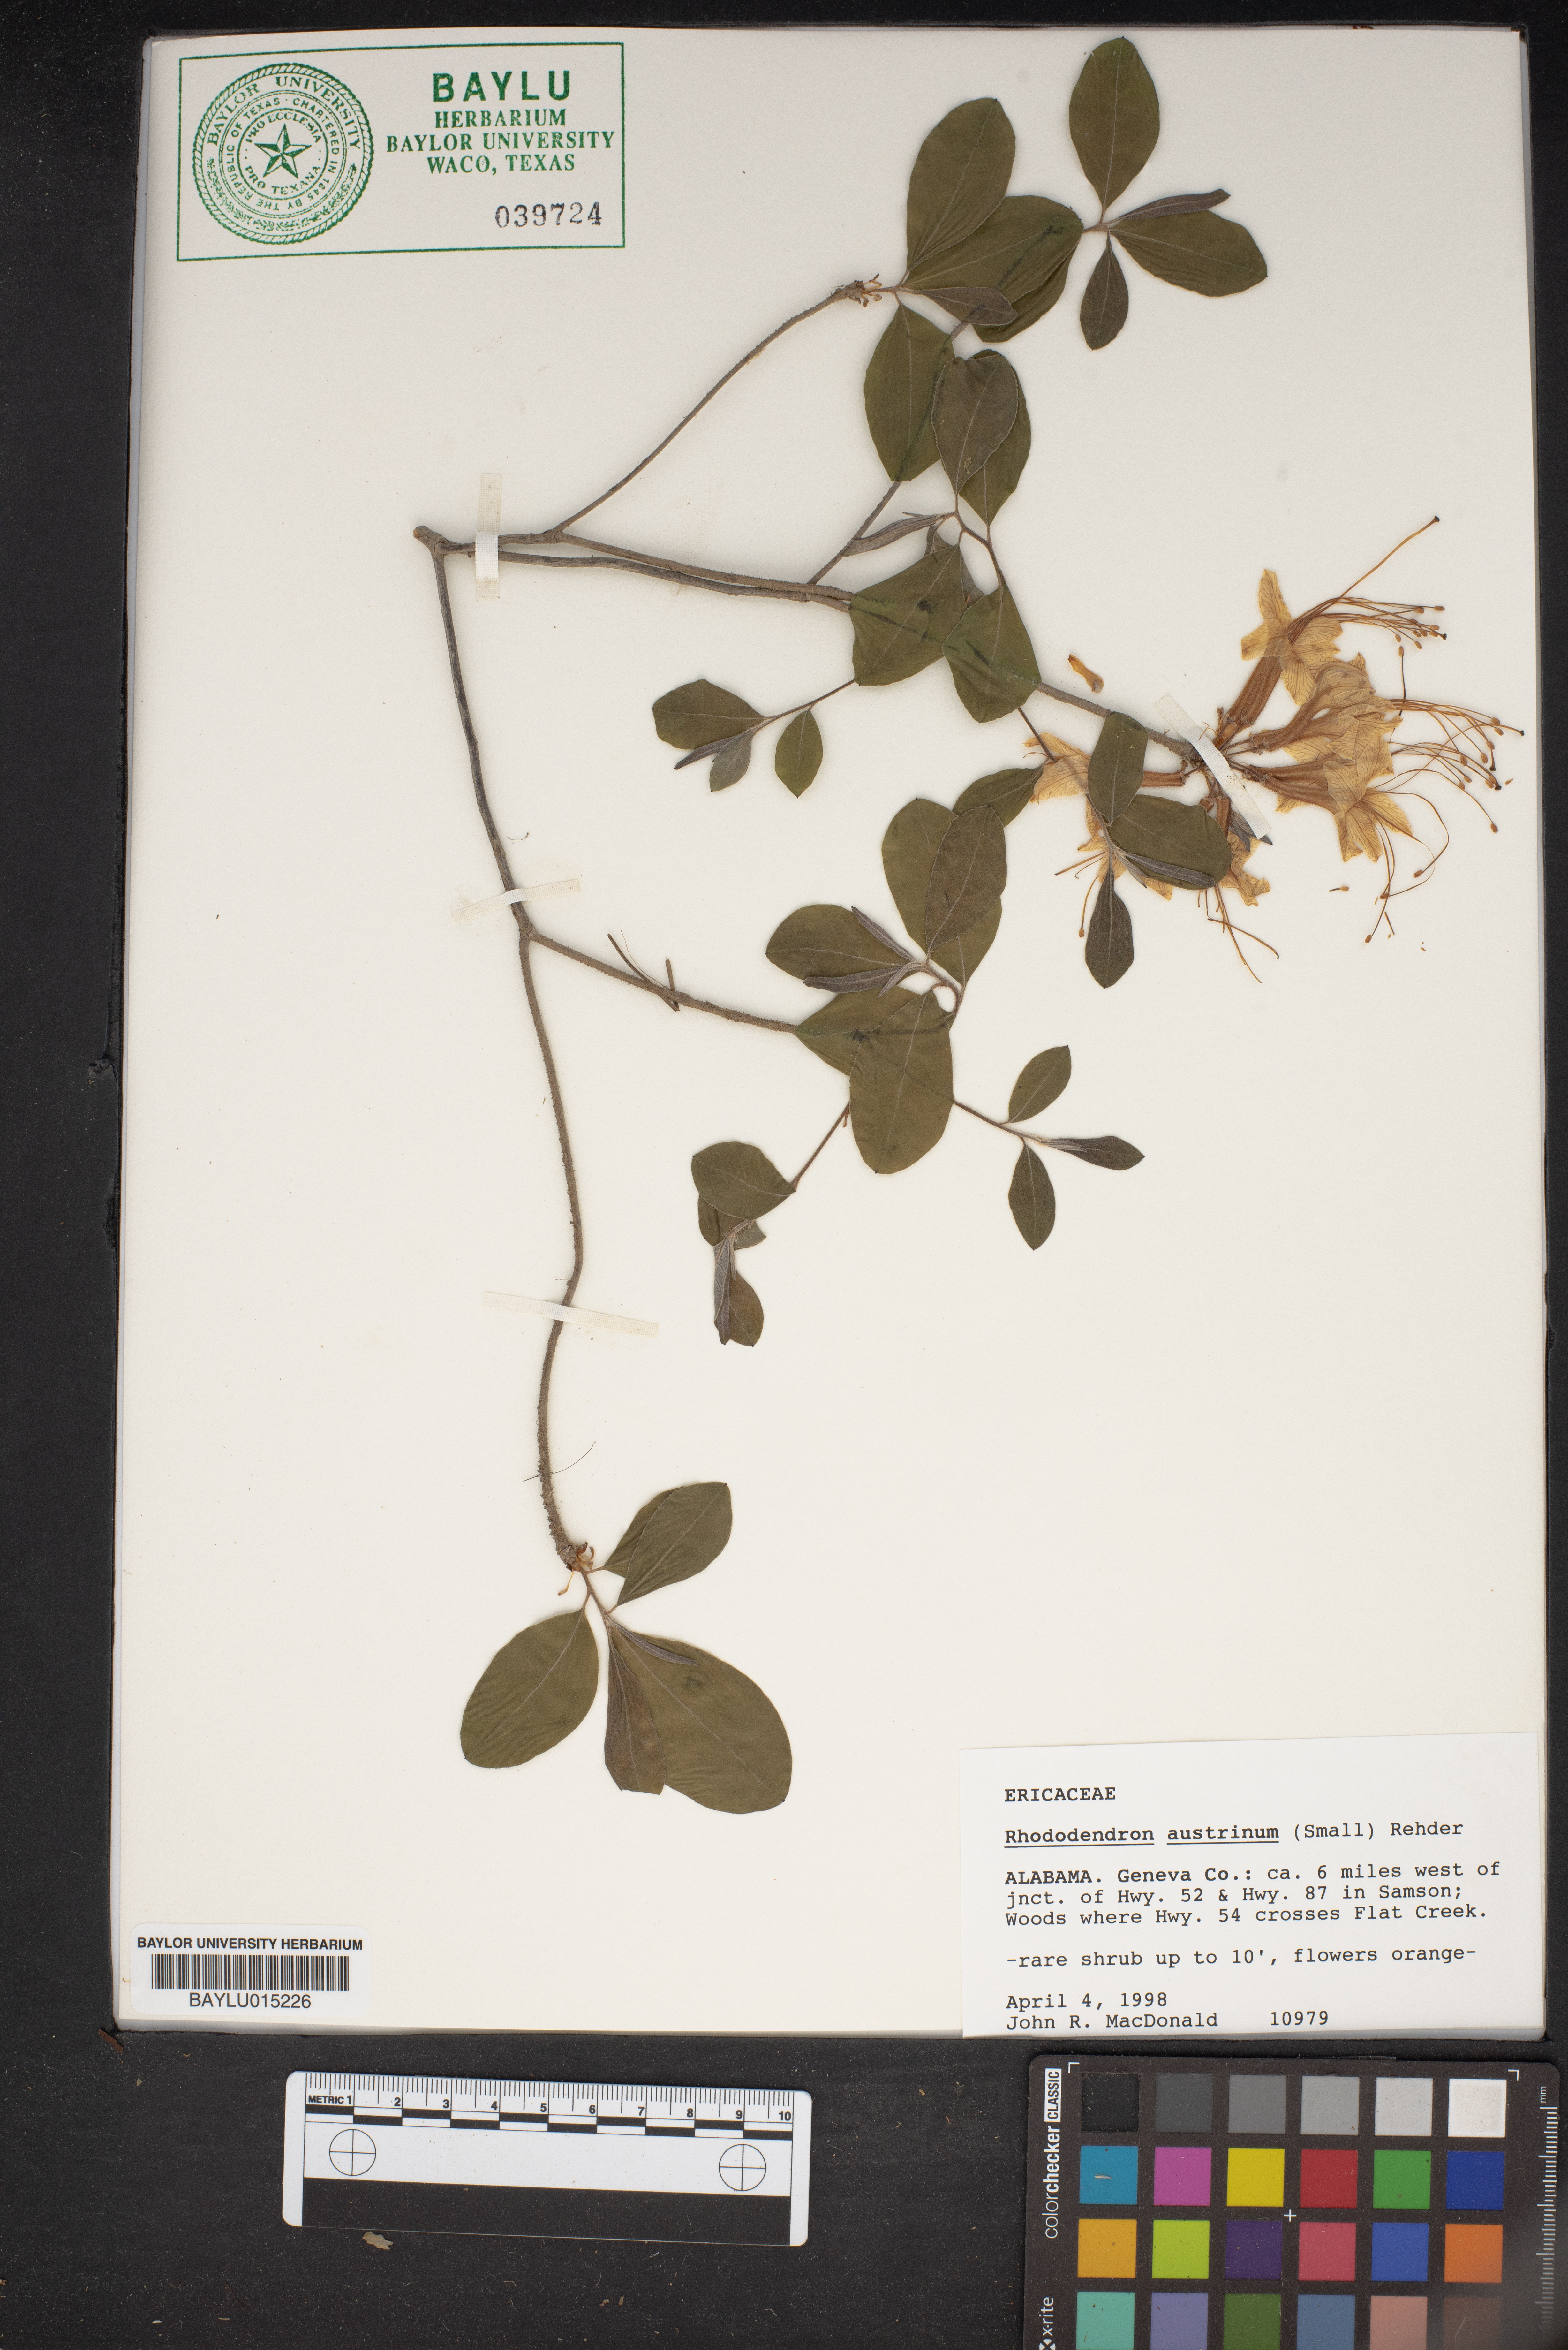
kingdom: Plantae
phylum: Tracheophyta
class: Magnoliopsida
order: Ericales
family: Ericaceae
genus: Rhododendron
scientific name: Rhododendron austrinum
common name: Florida azalea
